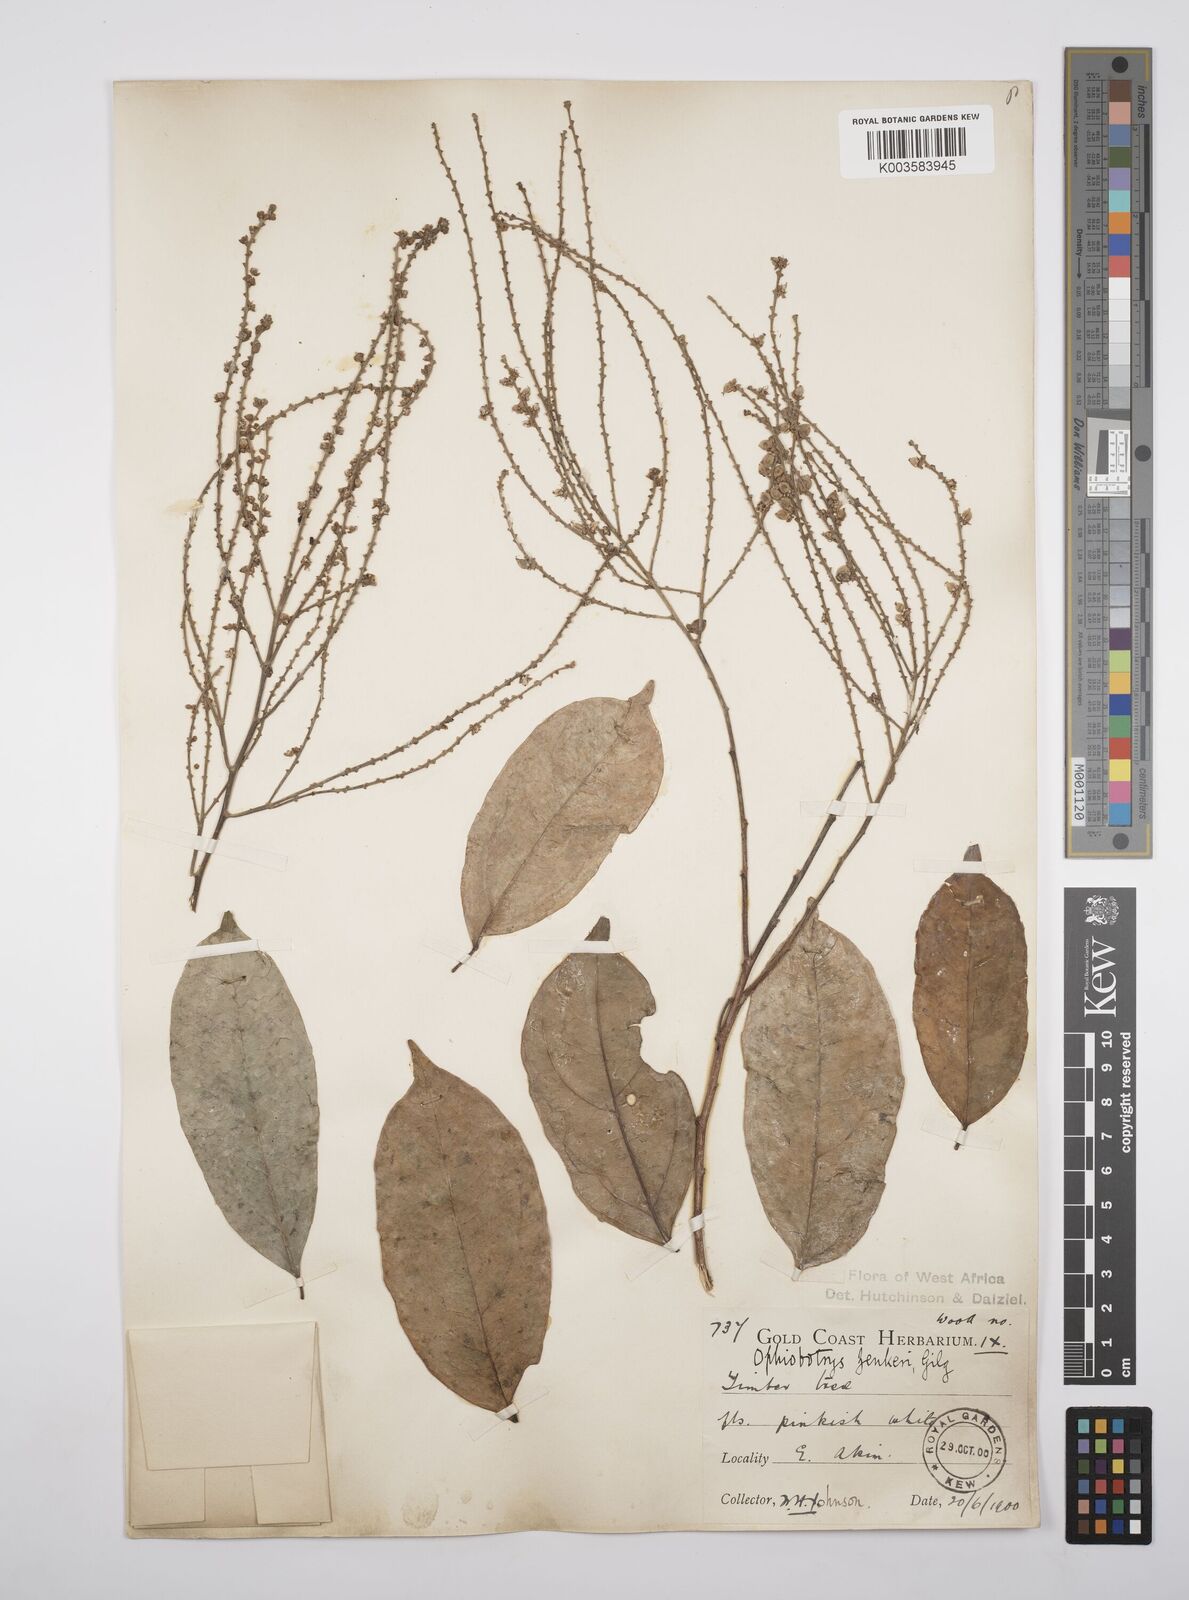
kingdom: Plantae
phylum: Tracheophyta
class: Magnoliopsida
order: Malpighiales
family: Salicaceae
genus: Ophiobotrys
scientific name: Ophiobotrys zenkeri
